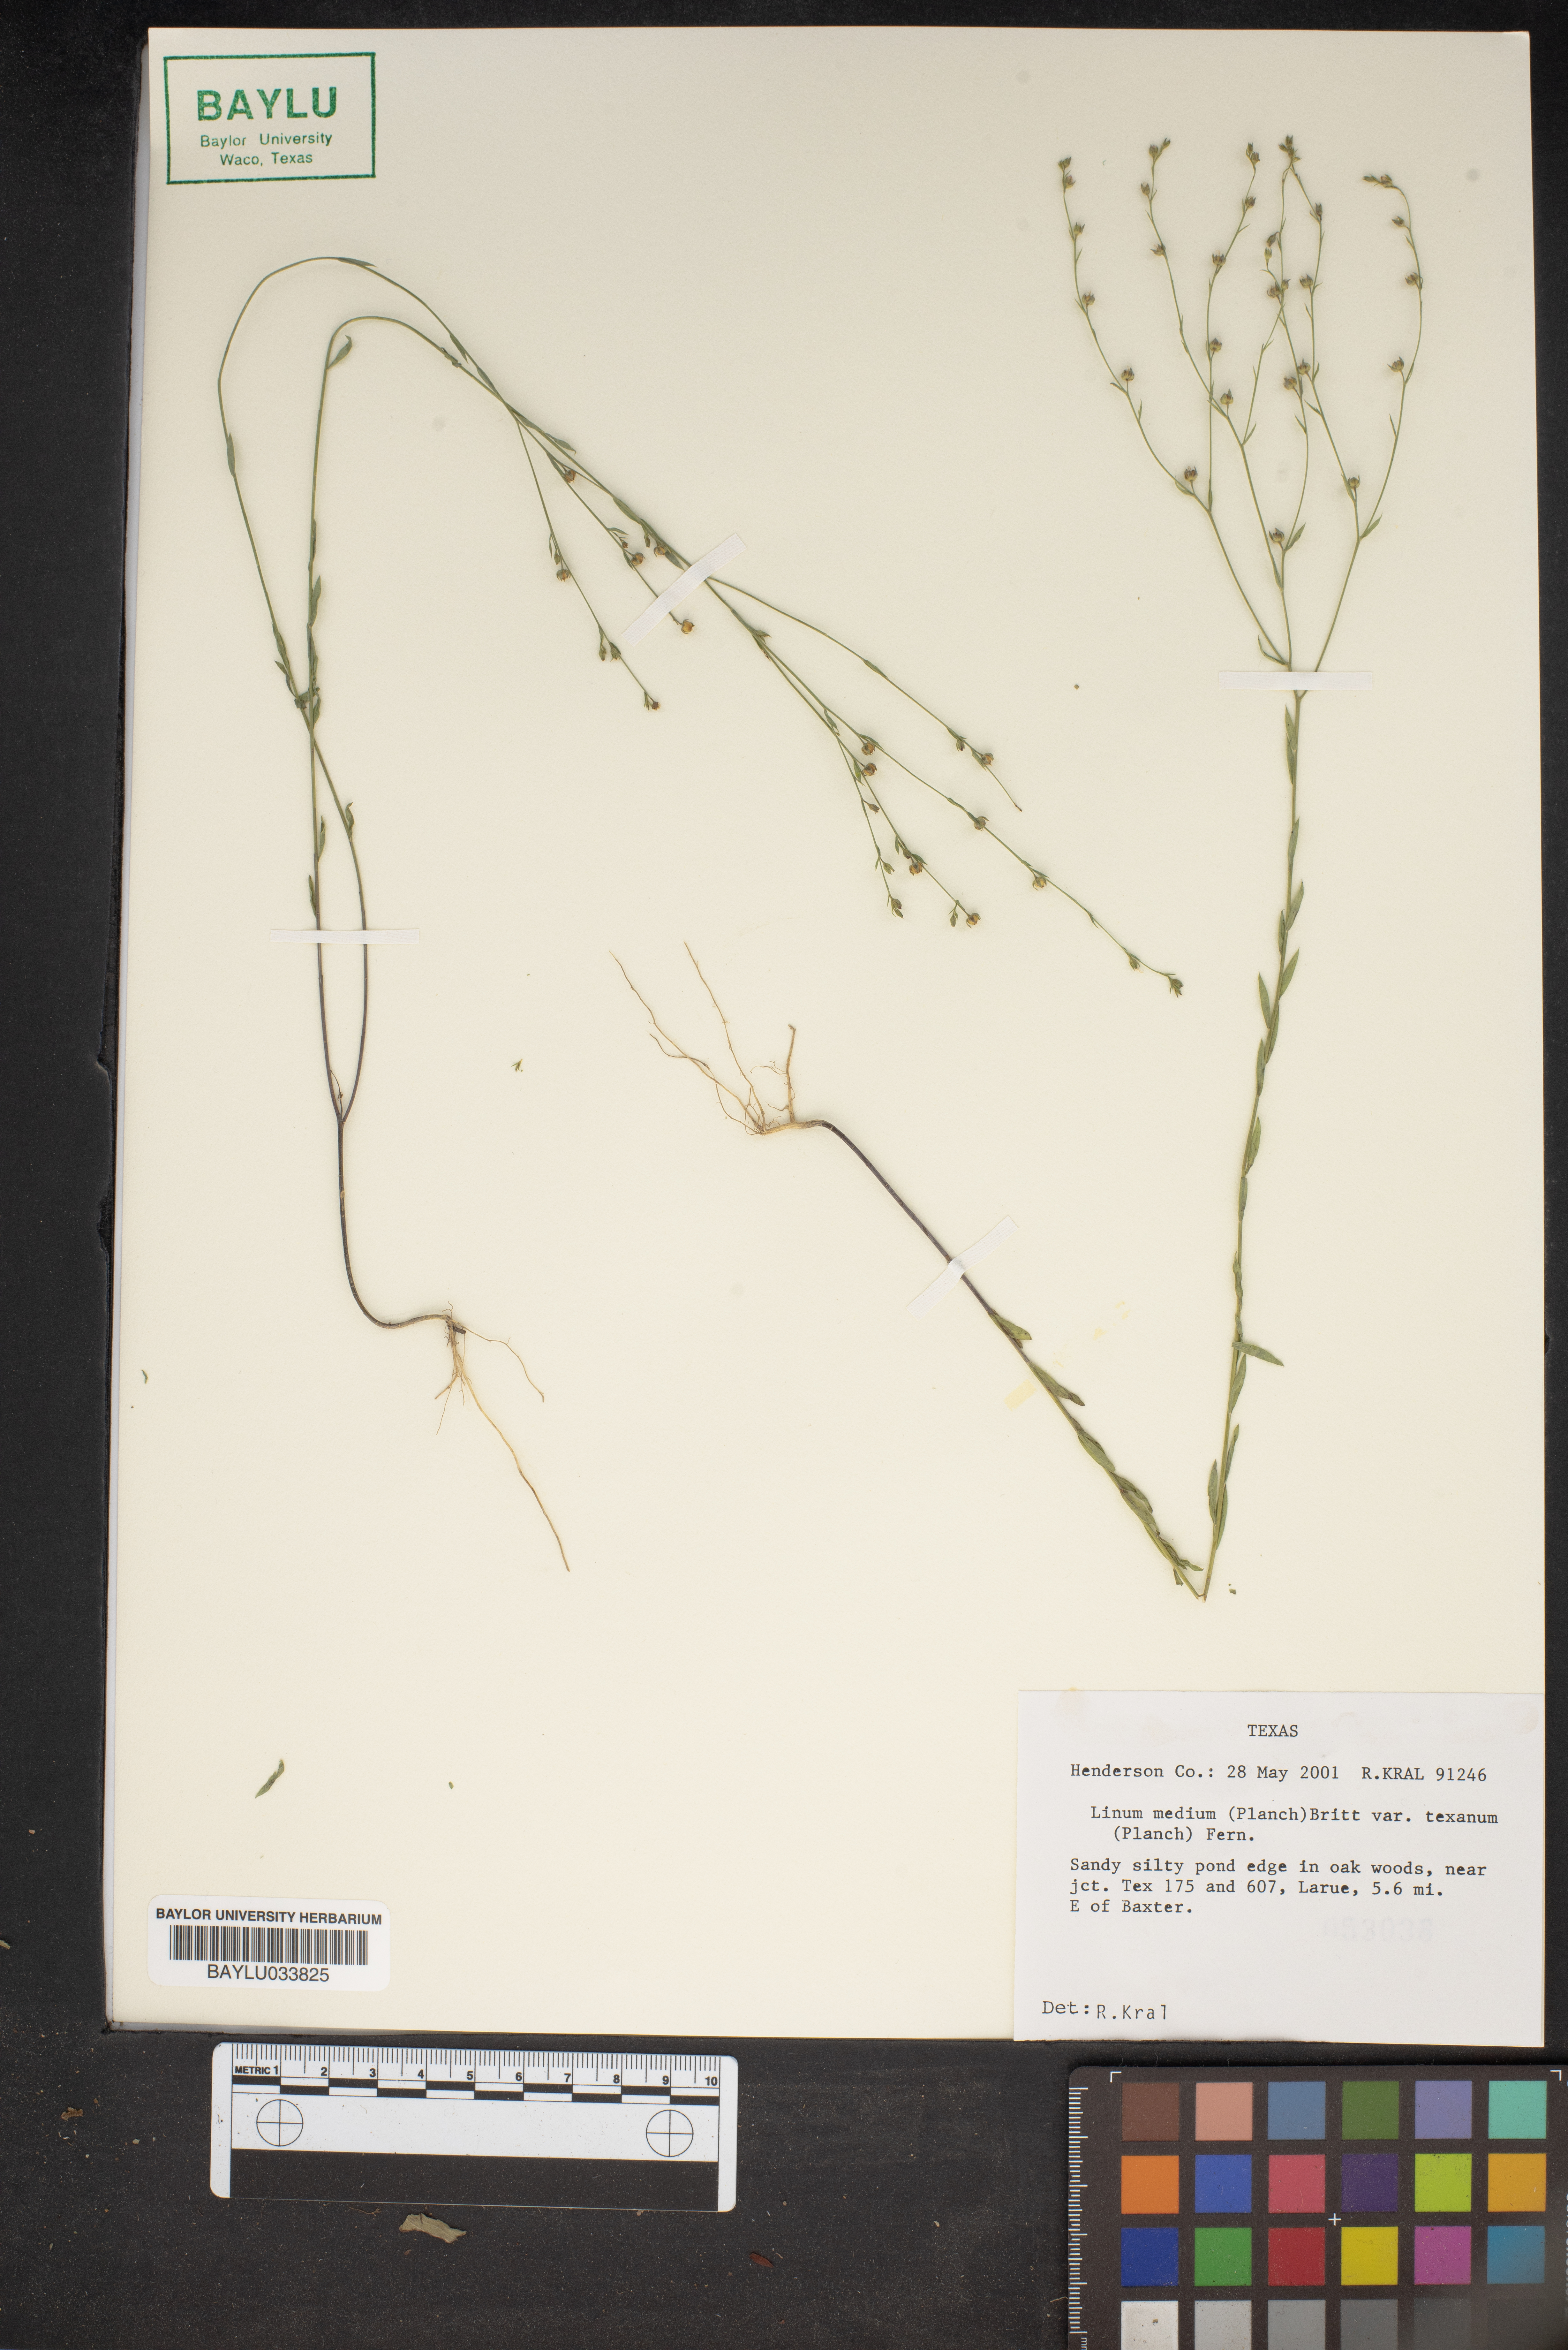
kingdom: Plantae
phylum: Tracheophyta
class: Magnoliopsida
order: Malpighiales
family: Linaceae
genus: Linum
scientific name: Linum medium
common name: Stiff yellow flax
